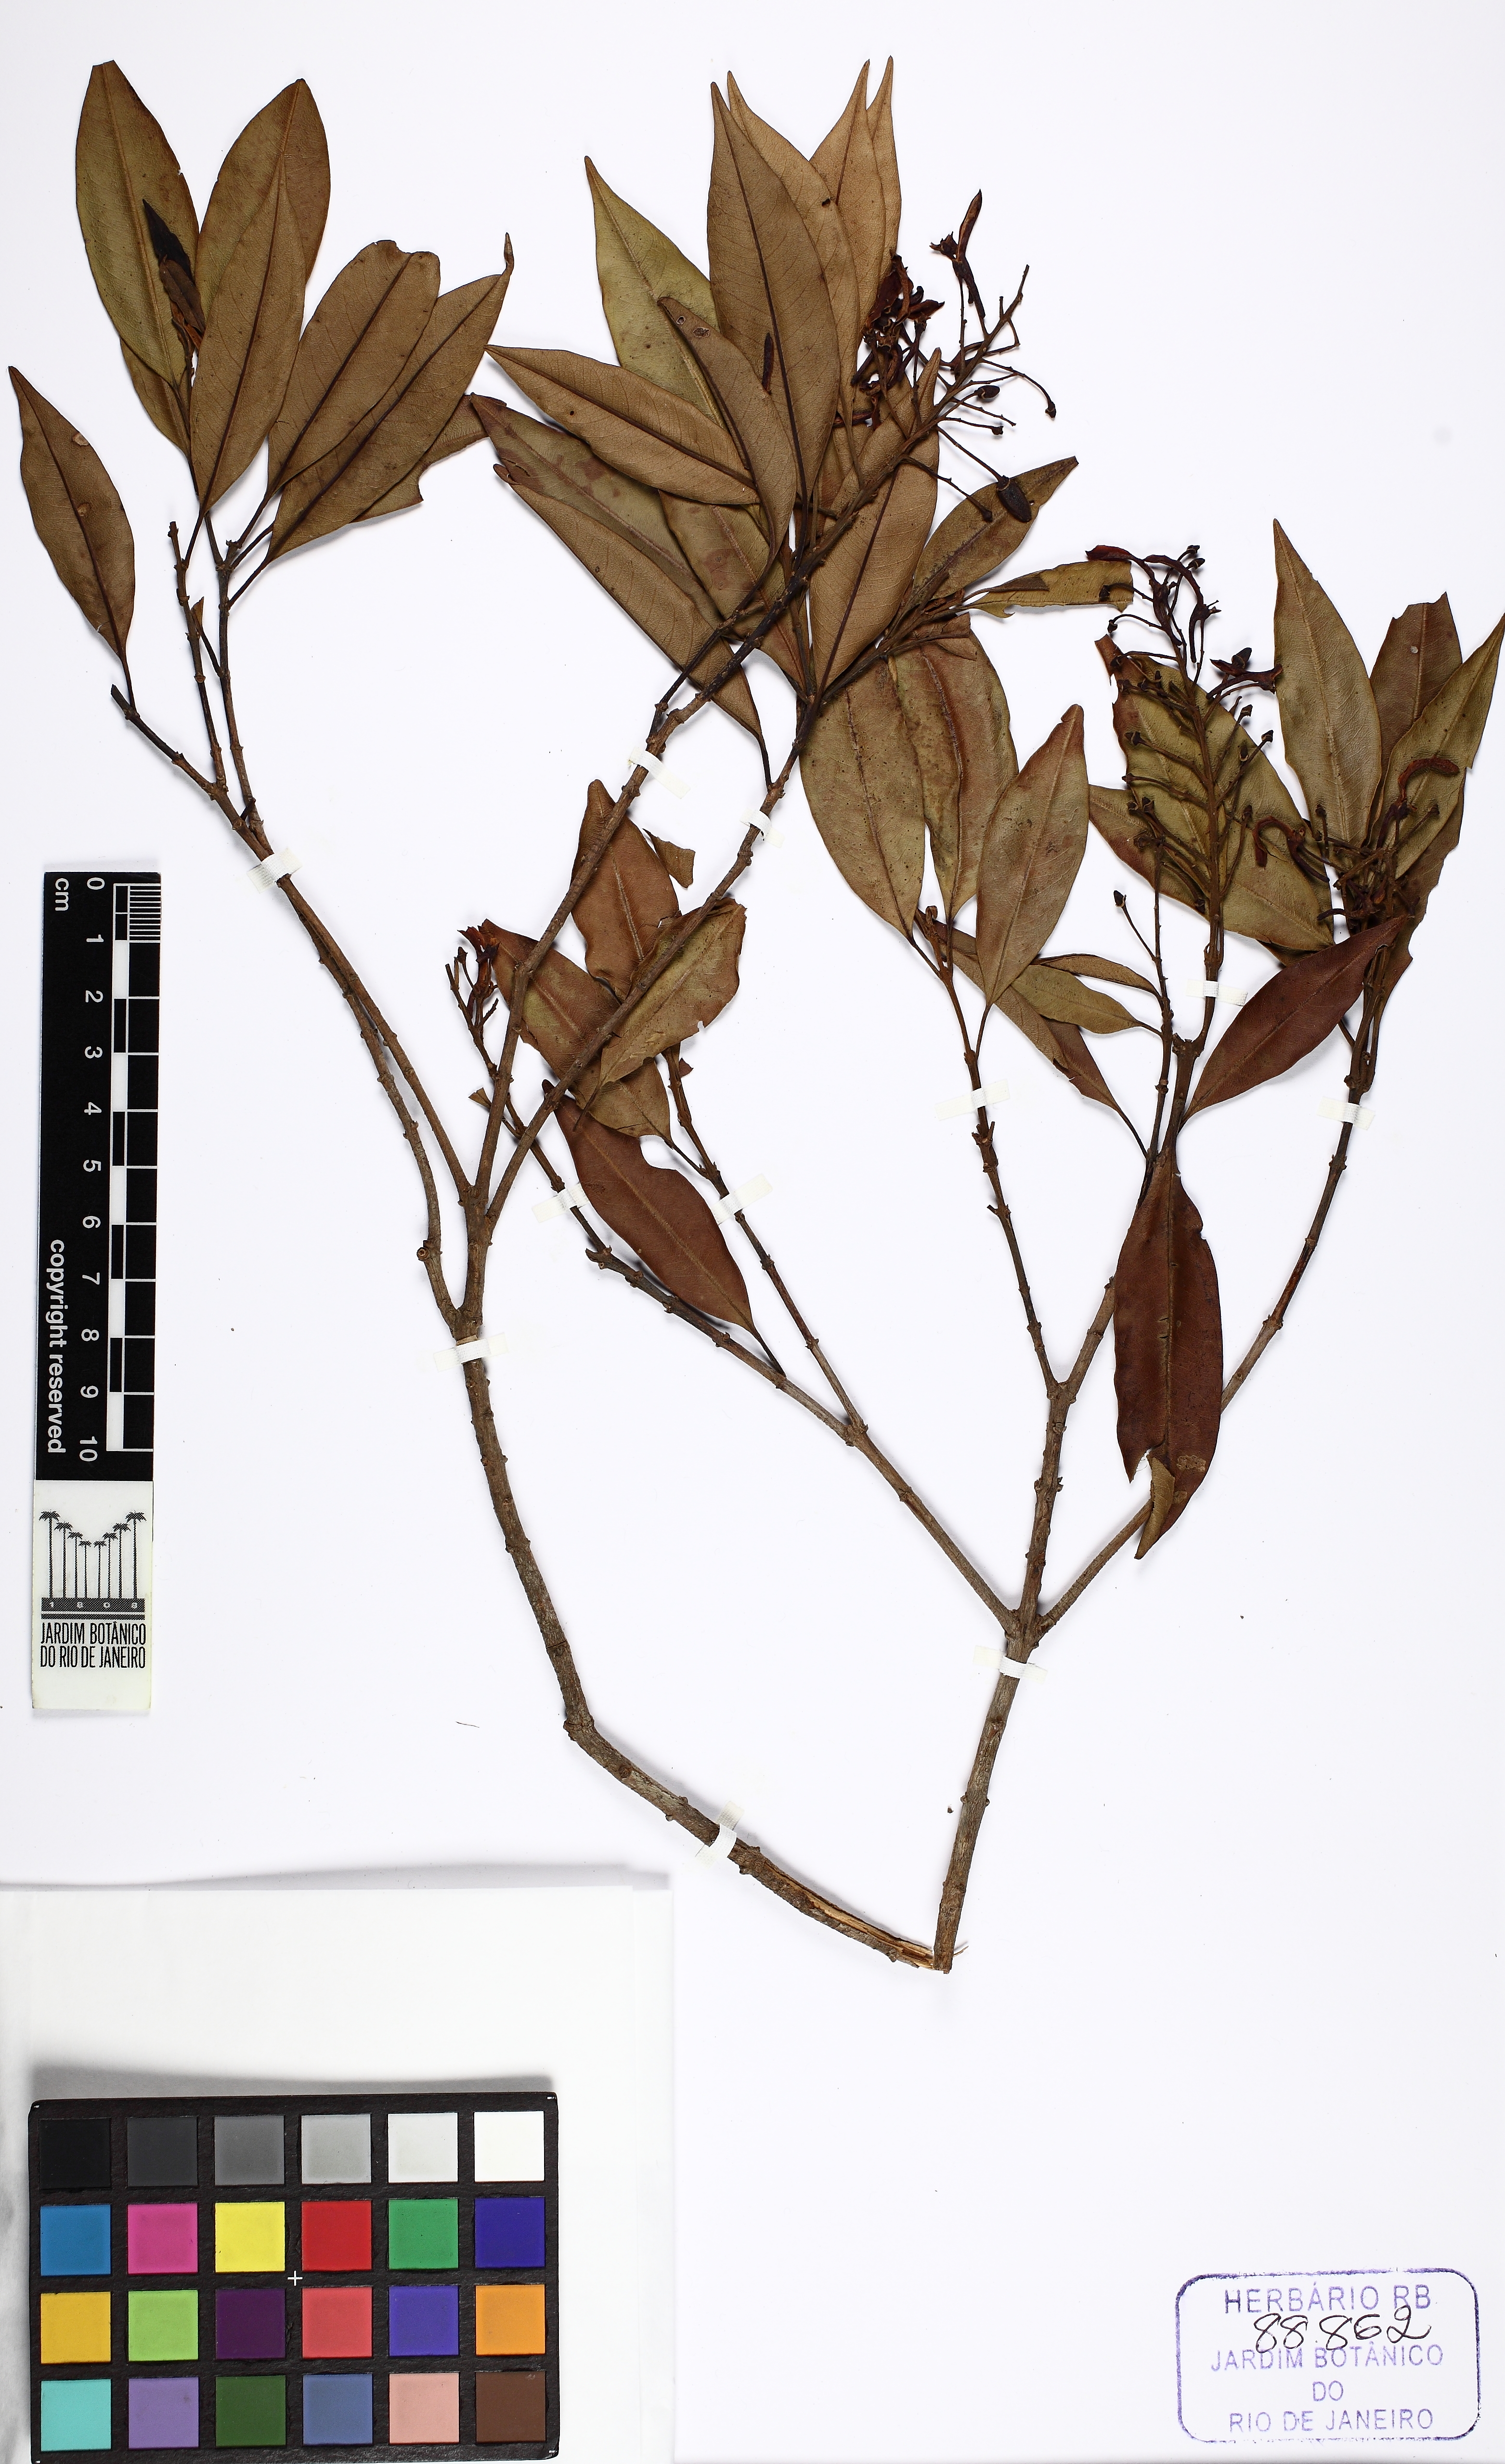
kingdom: Plantae
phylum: Tracheophyta
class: Magnoliopsida
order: Myrtales
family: Vochysiaceae
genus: Vochysia
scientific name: Vochysia laurifolia
